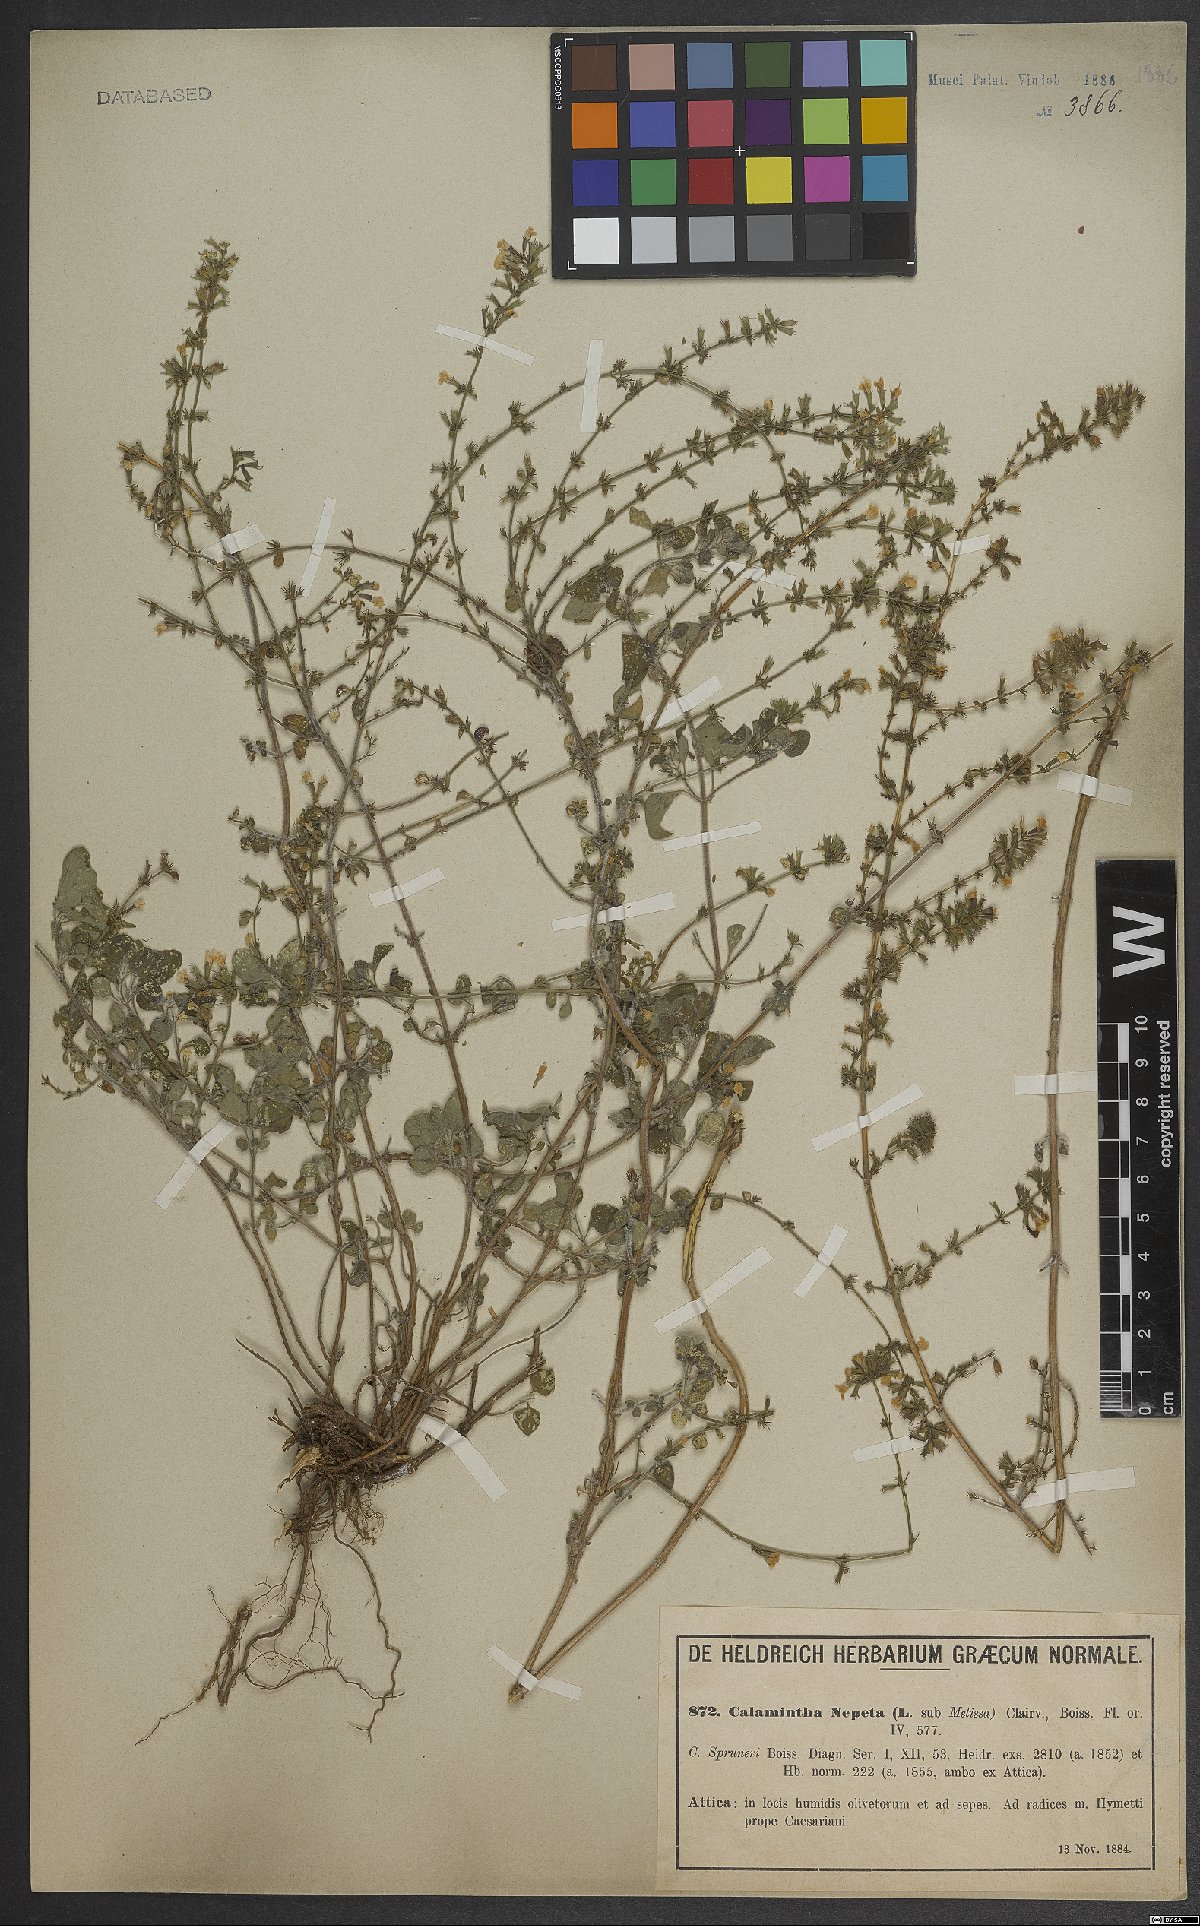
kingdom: Plantae
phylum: Tracheophyta
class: Magnoliopsida
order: Lamiales
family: Lamiaceae
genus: Clinopodium
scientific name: Clinopodium nepeta
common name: Lesser calamint
